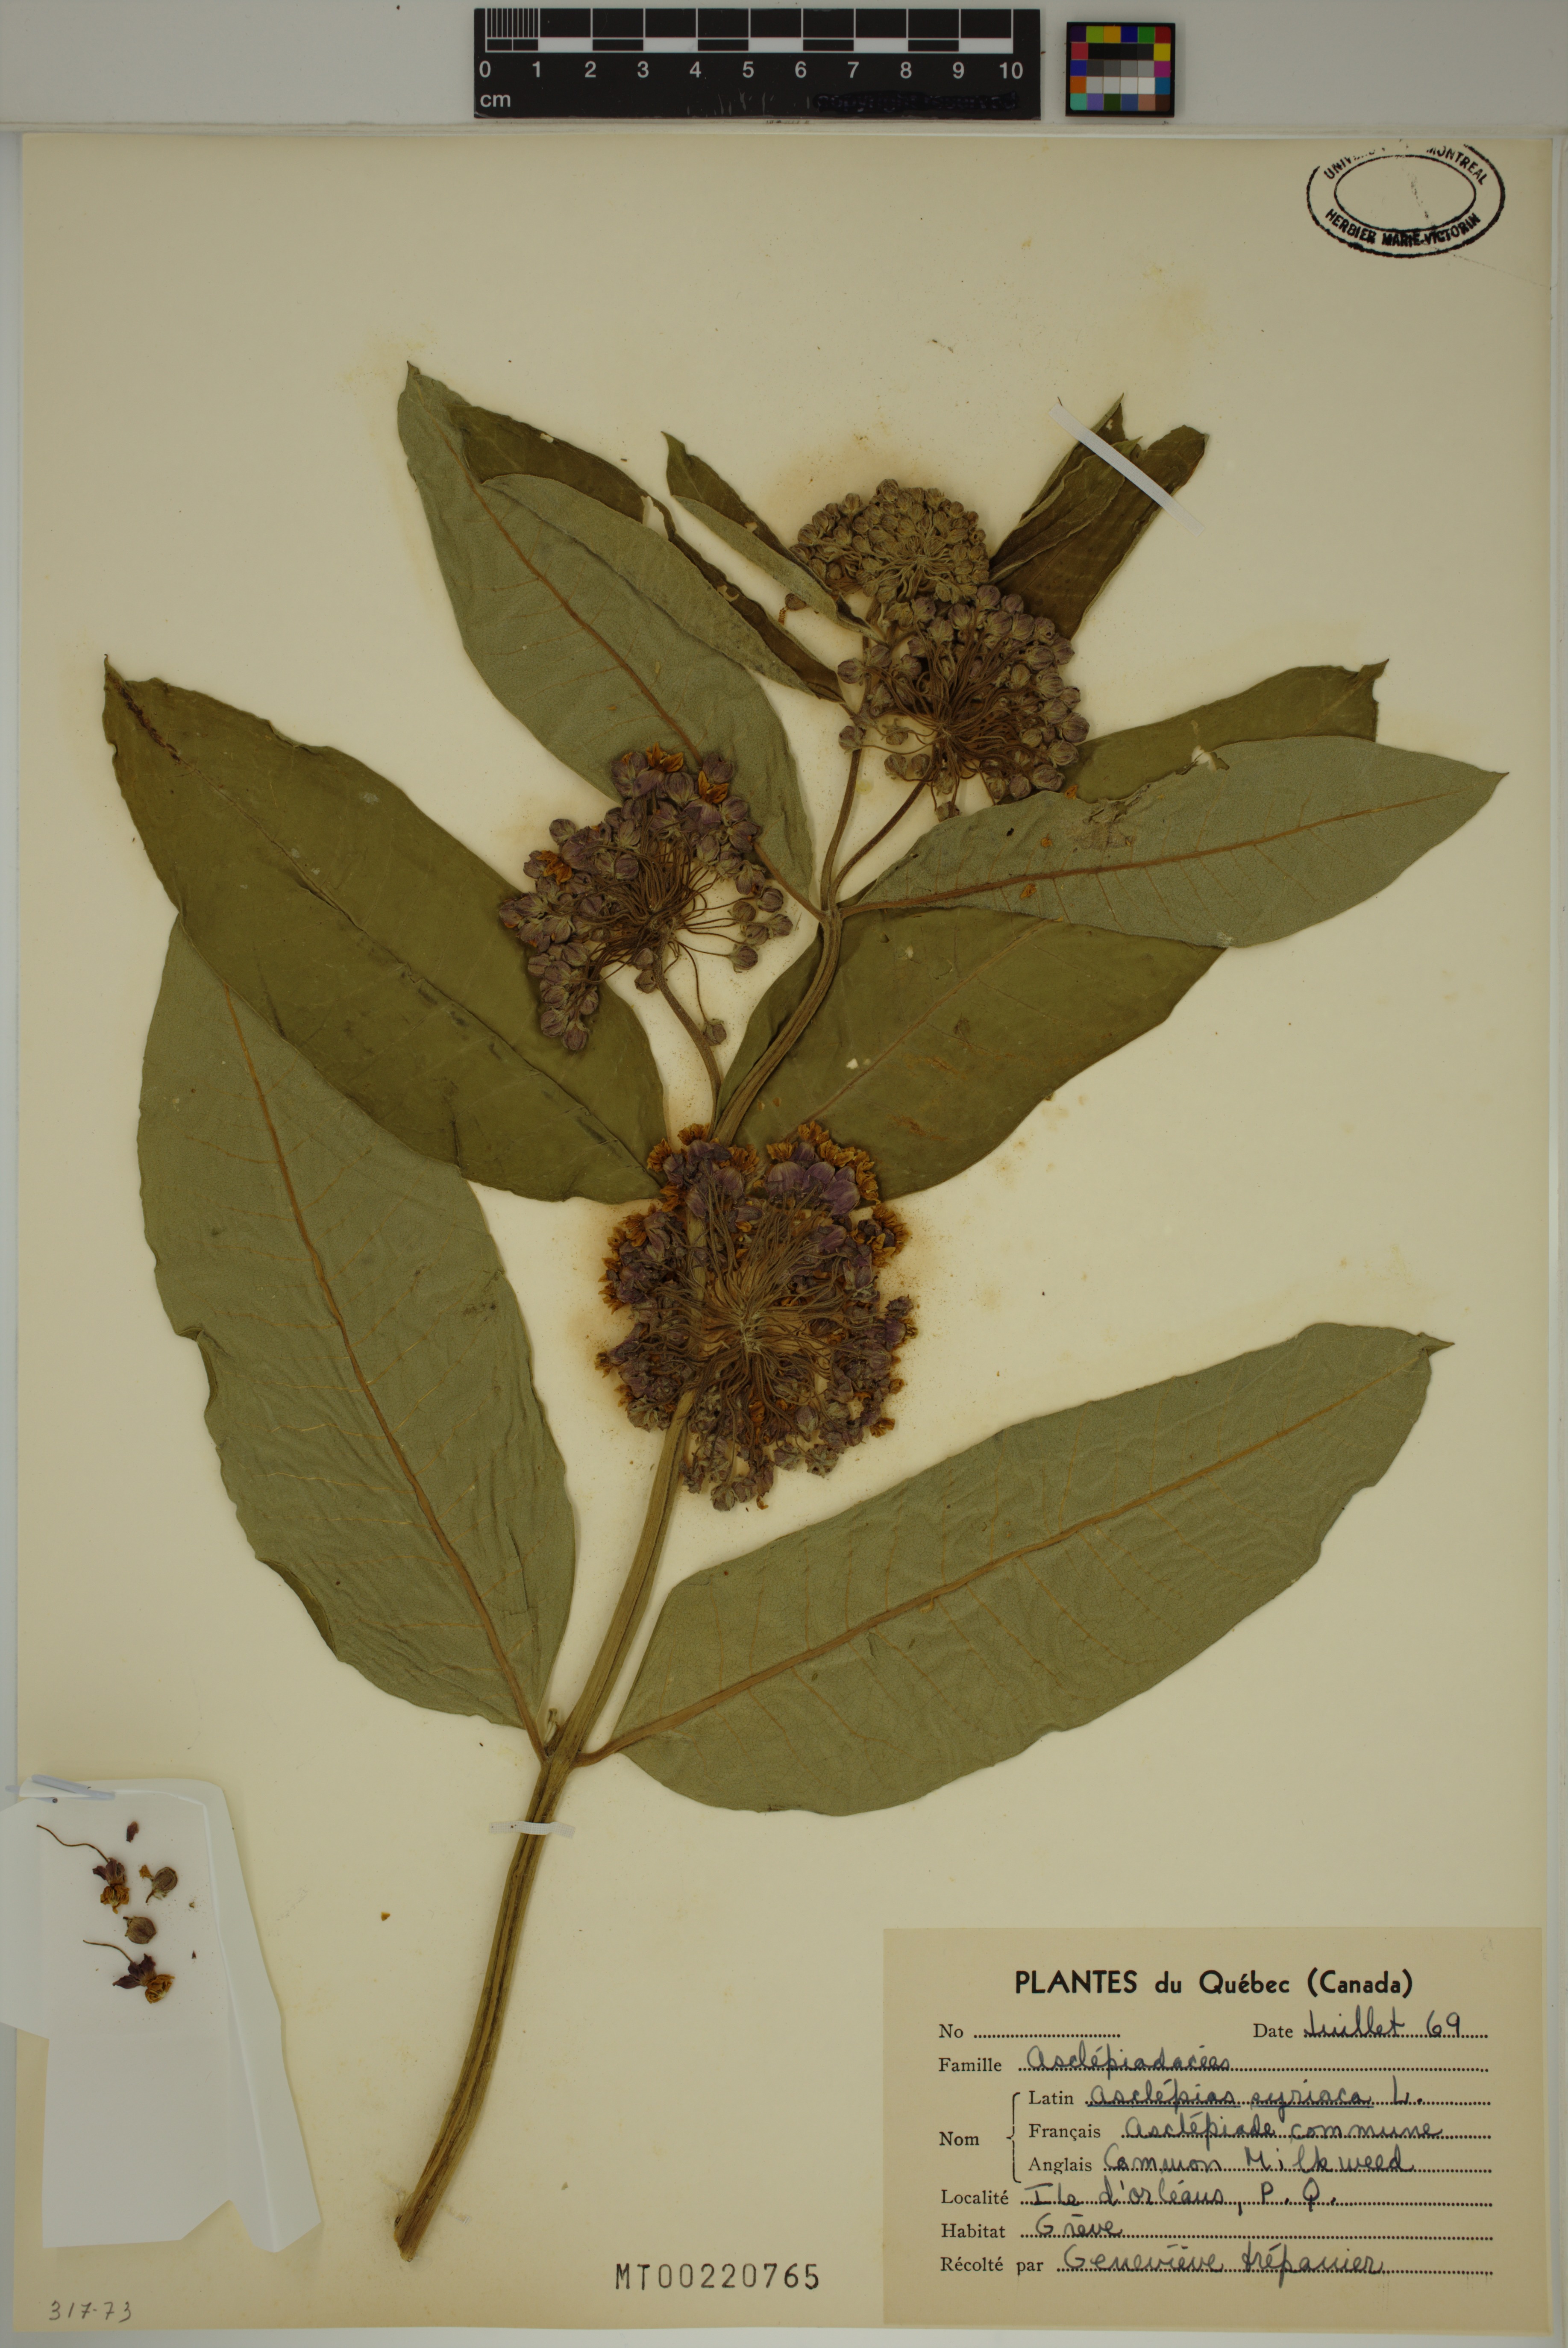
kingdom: Plantae
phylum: Tracheophyta
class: Magnoliopsida
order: Gentianales
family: Apocynaceae
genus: Asclepias
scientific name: Asclepias syriaca
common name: Common milkweed
